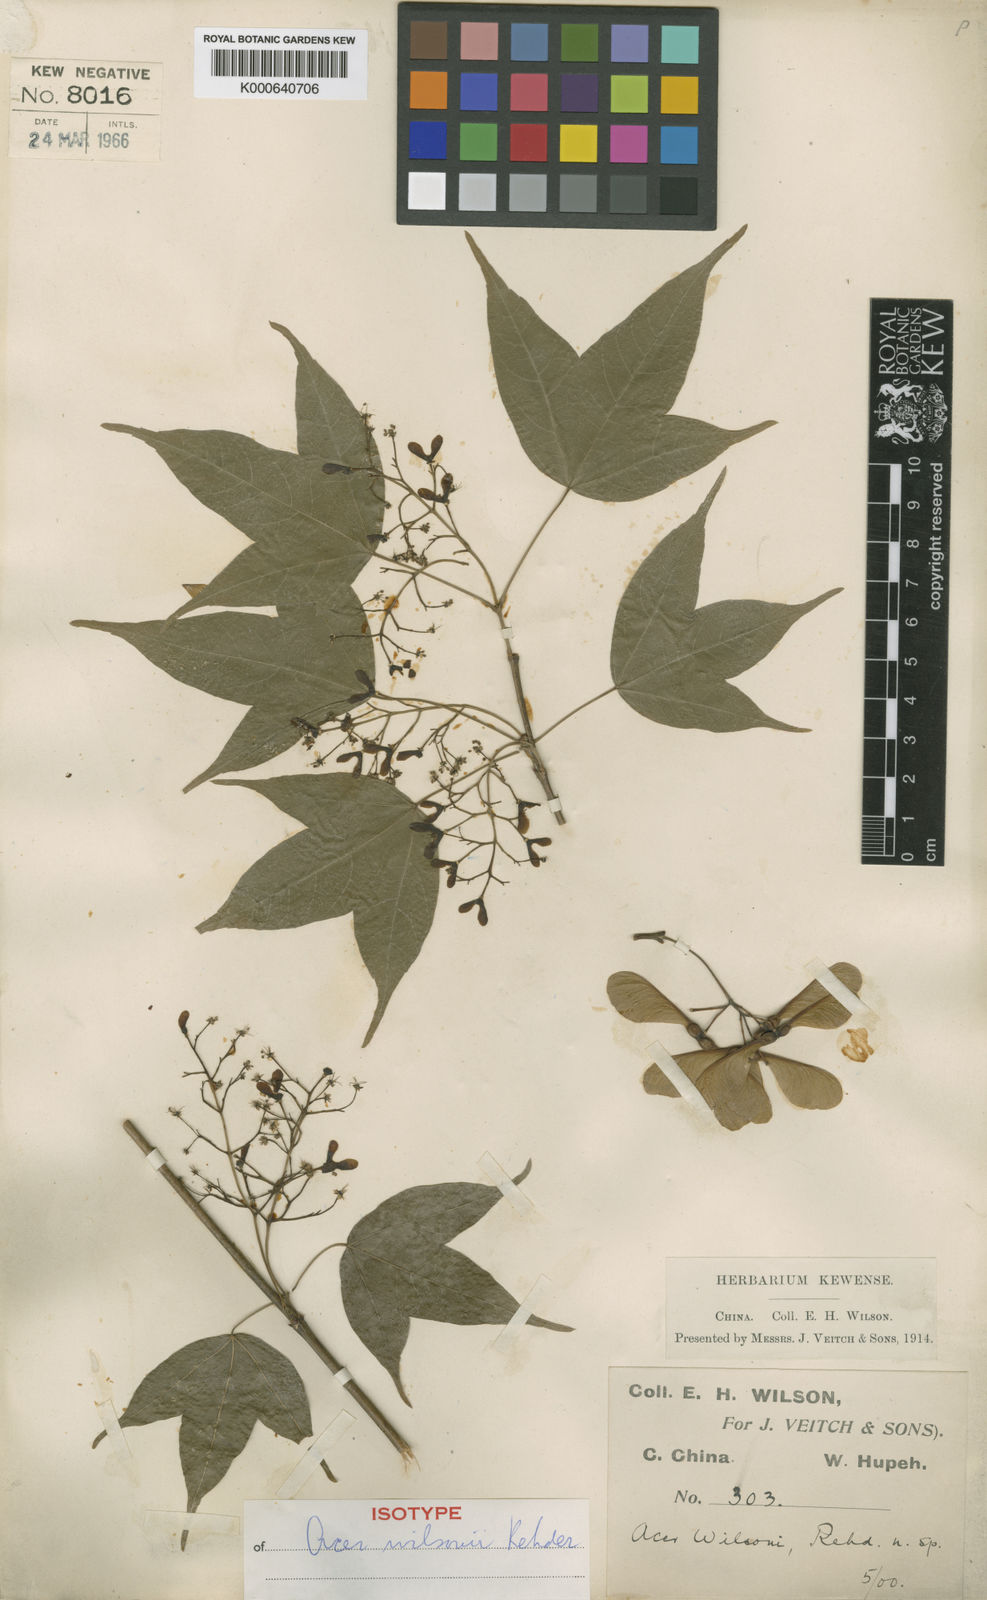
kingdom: Plantae
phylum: Tracheophyta
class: Magnoliopsida
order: Sapindales
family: Sapindaceae
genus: Acer
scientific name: Acer wilsonii
